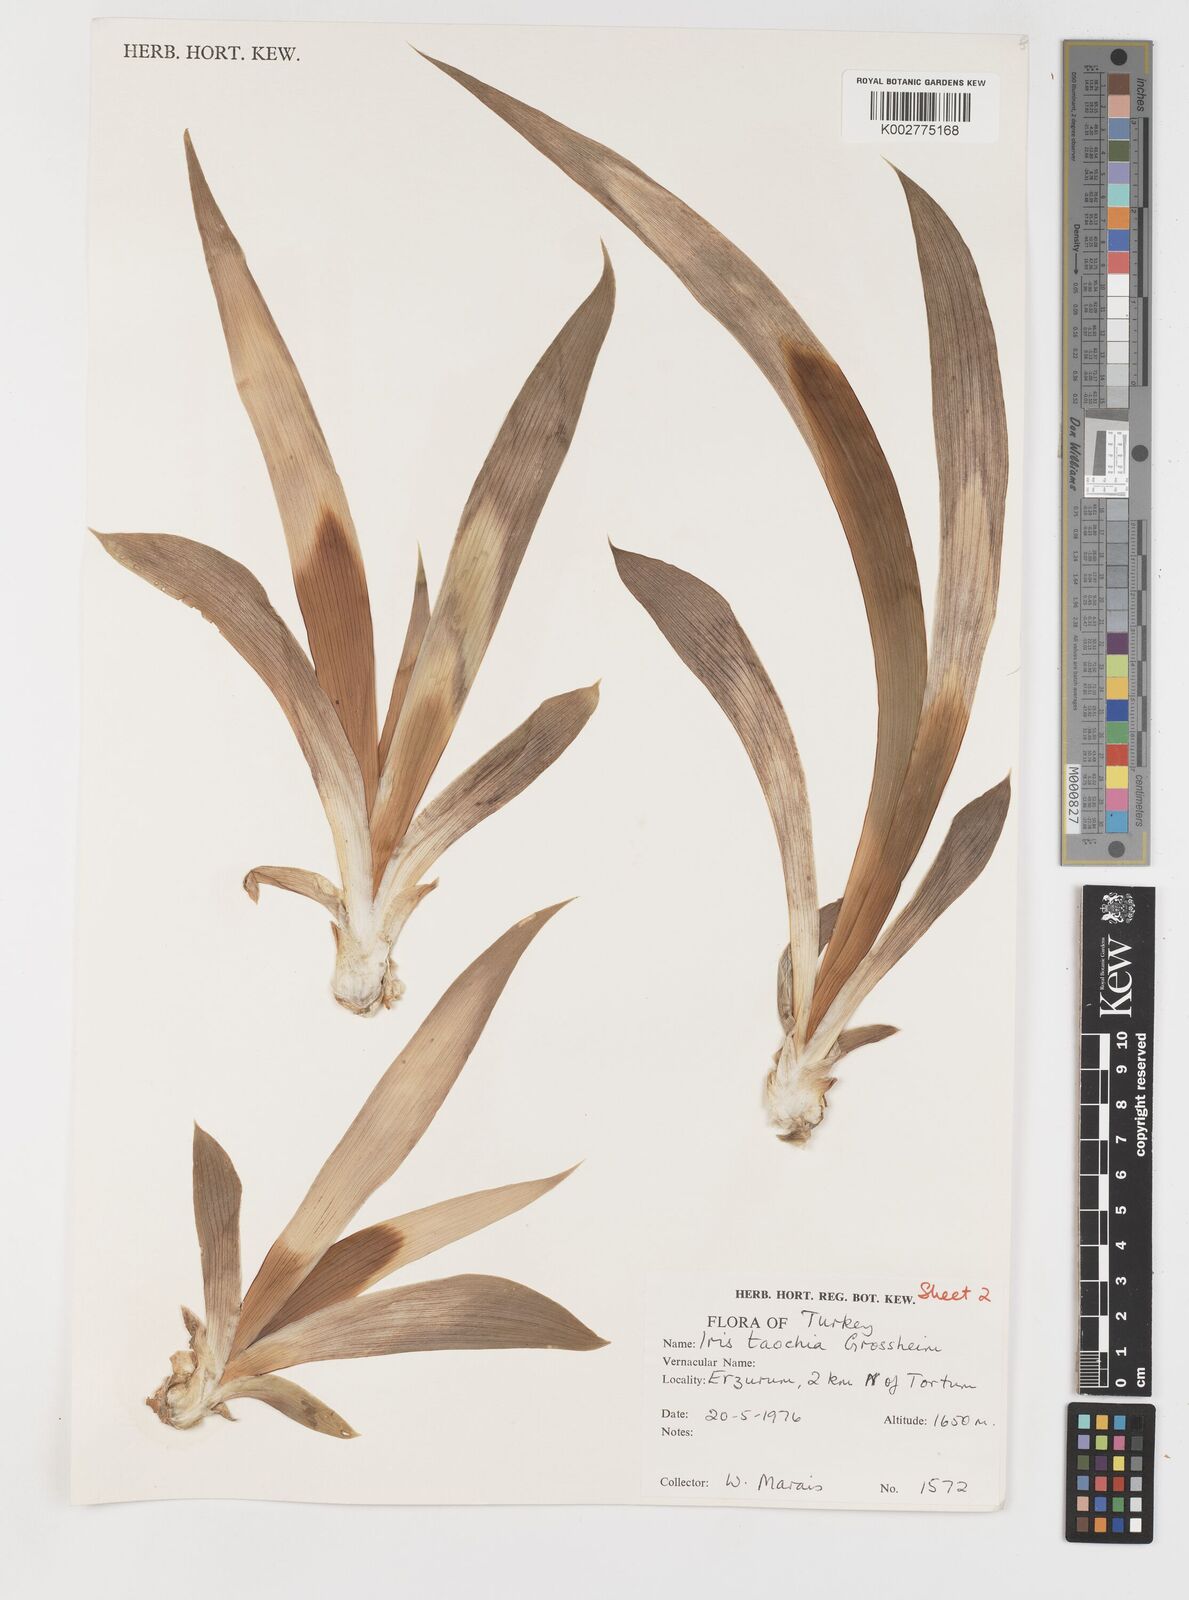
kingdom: Plantae
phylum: Tracheophyta
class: Liliopsida
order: Asparagales
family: Iridaceae
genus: Iris
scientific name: Iris taochia
